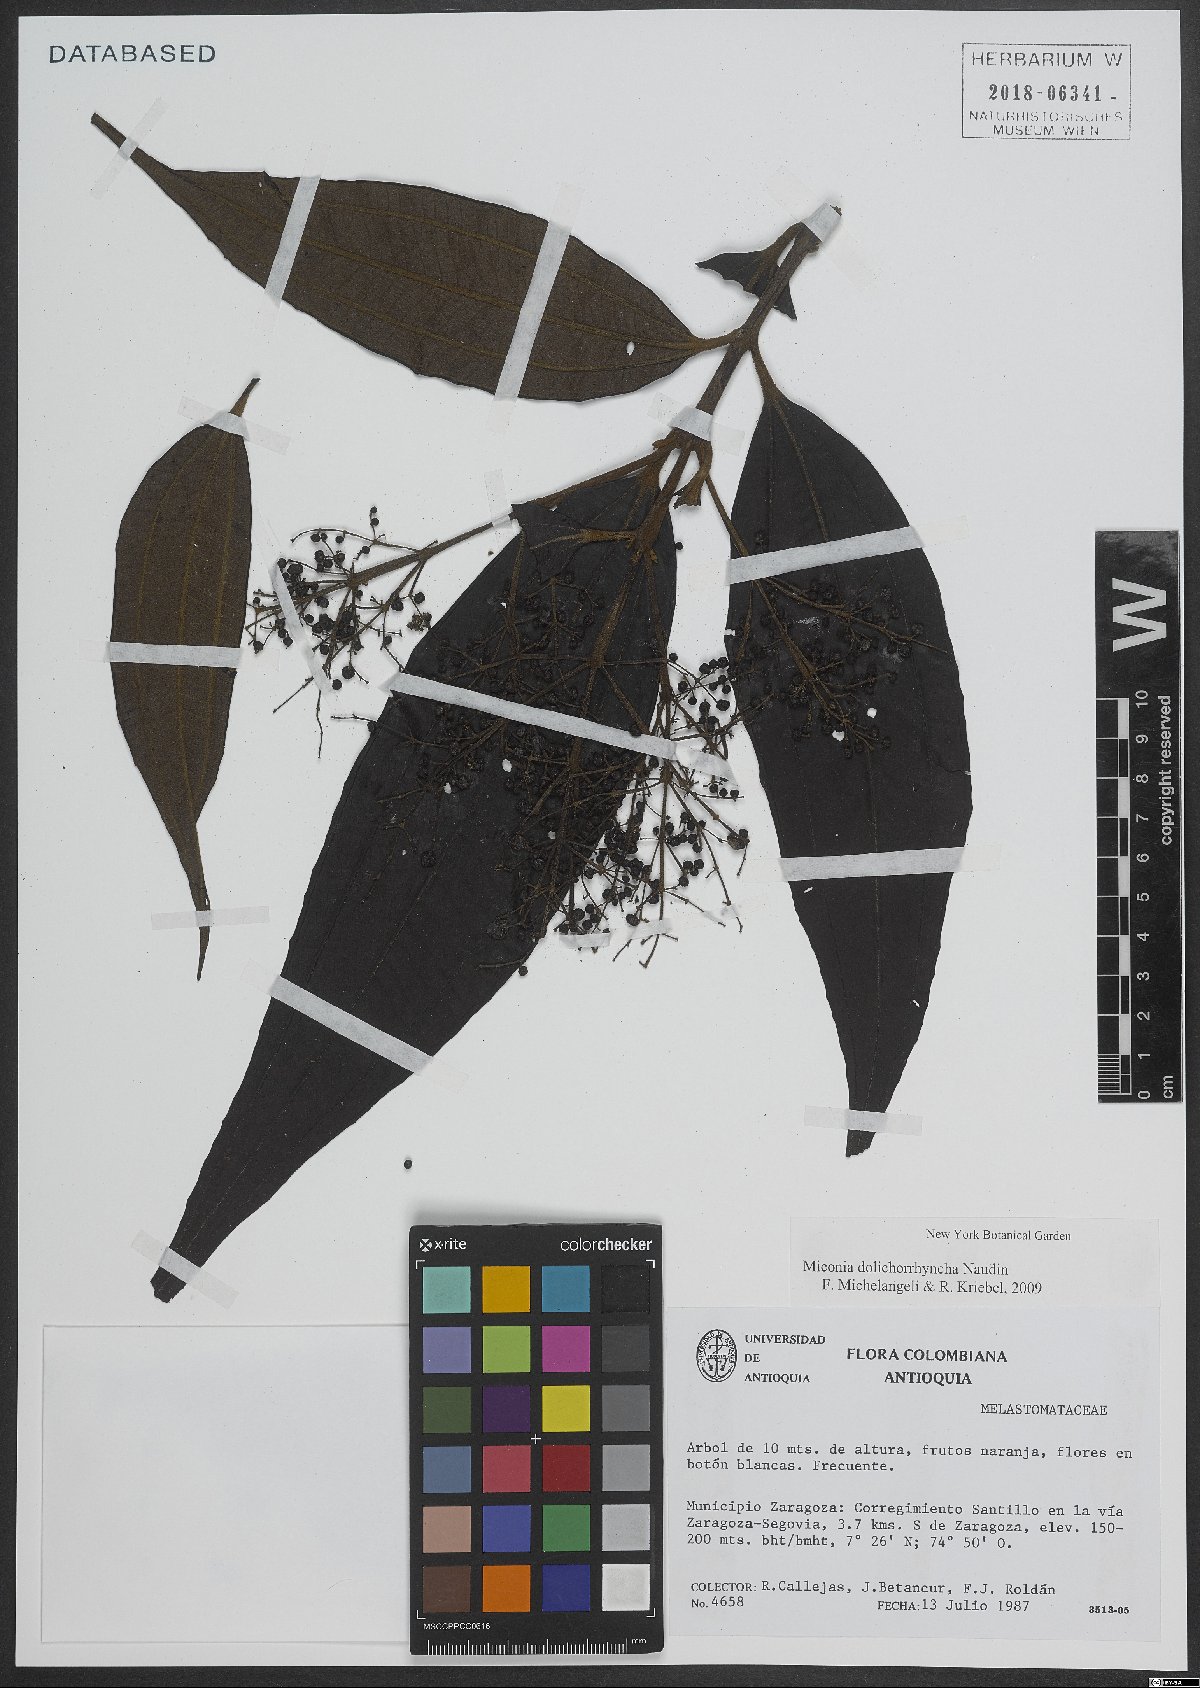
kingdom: Plantae
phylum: Tracheophyta
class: Magnoliopsida
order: Myrtales
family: Melastomataceae
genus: Miconia
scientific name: Miconia dolichorrhyncha
